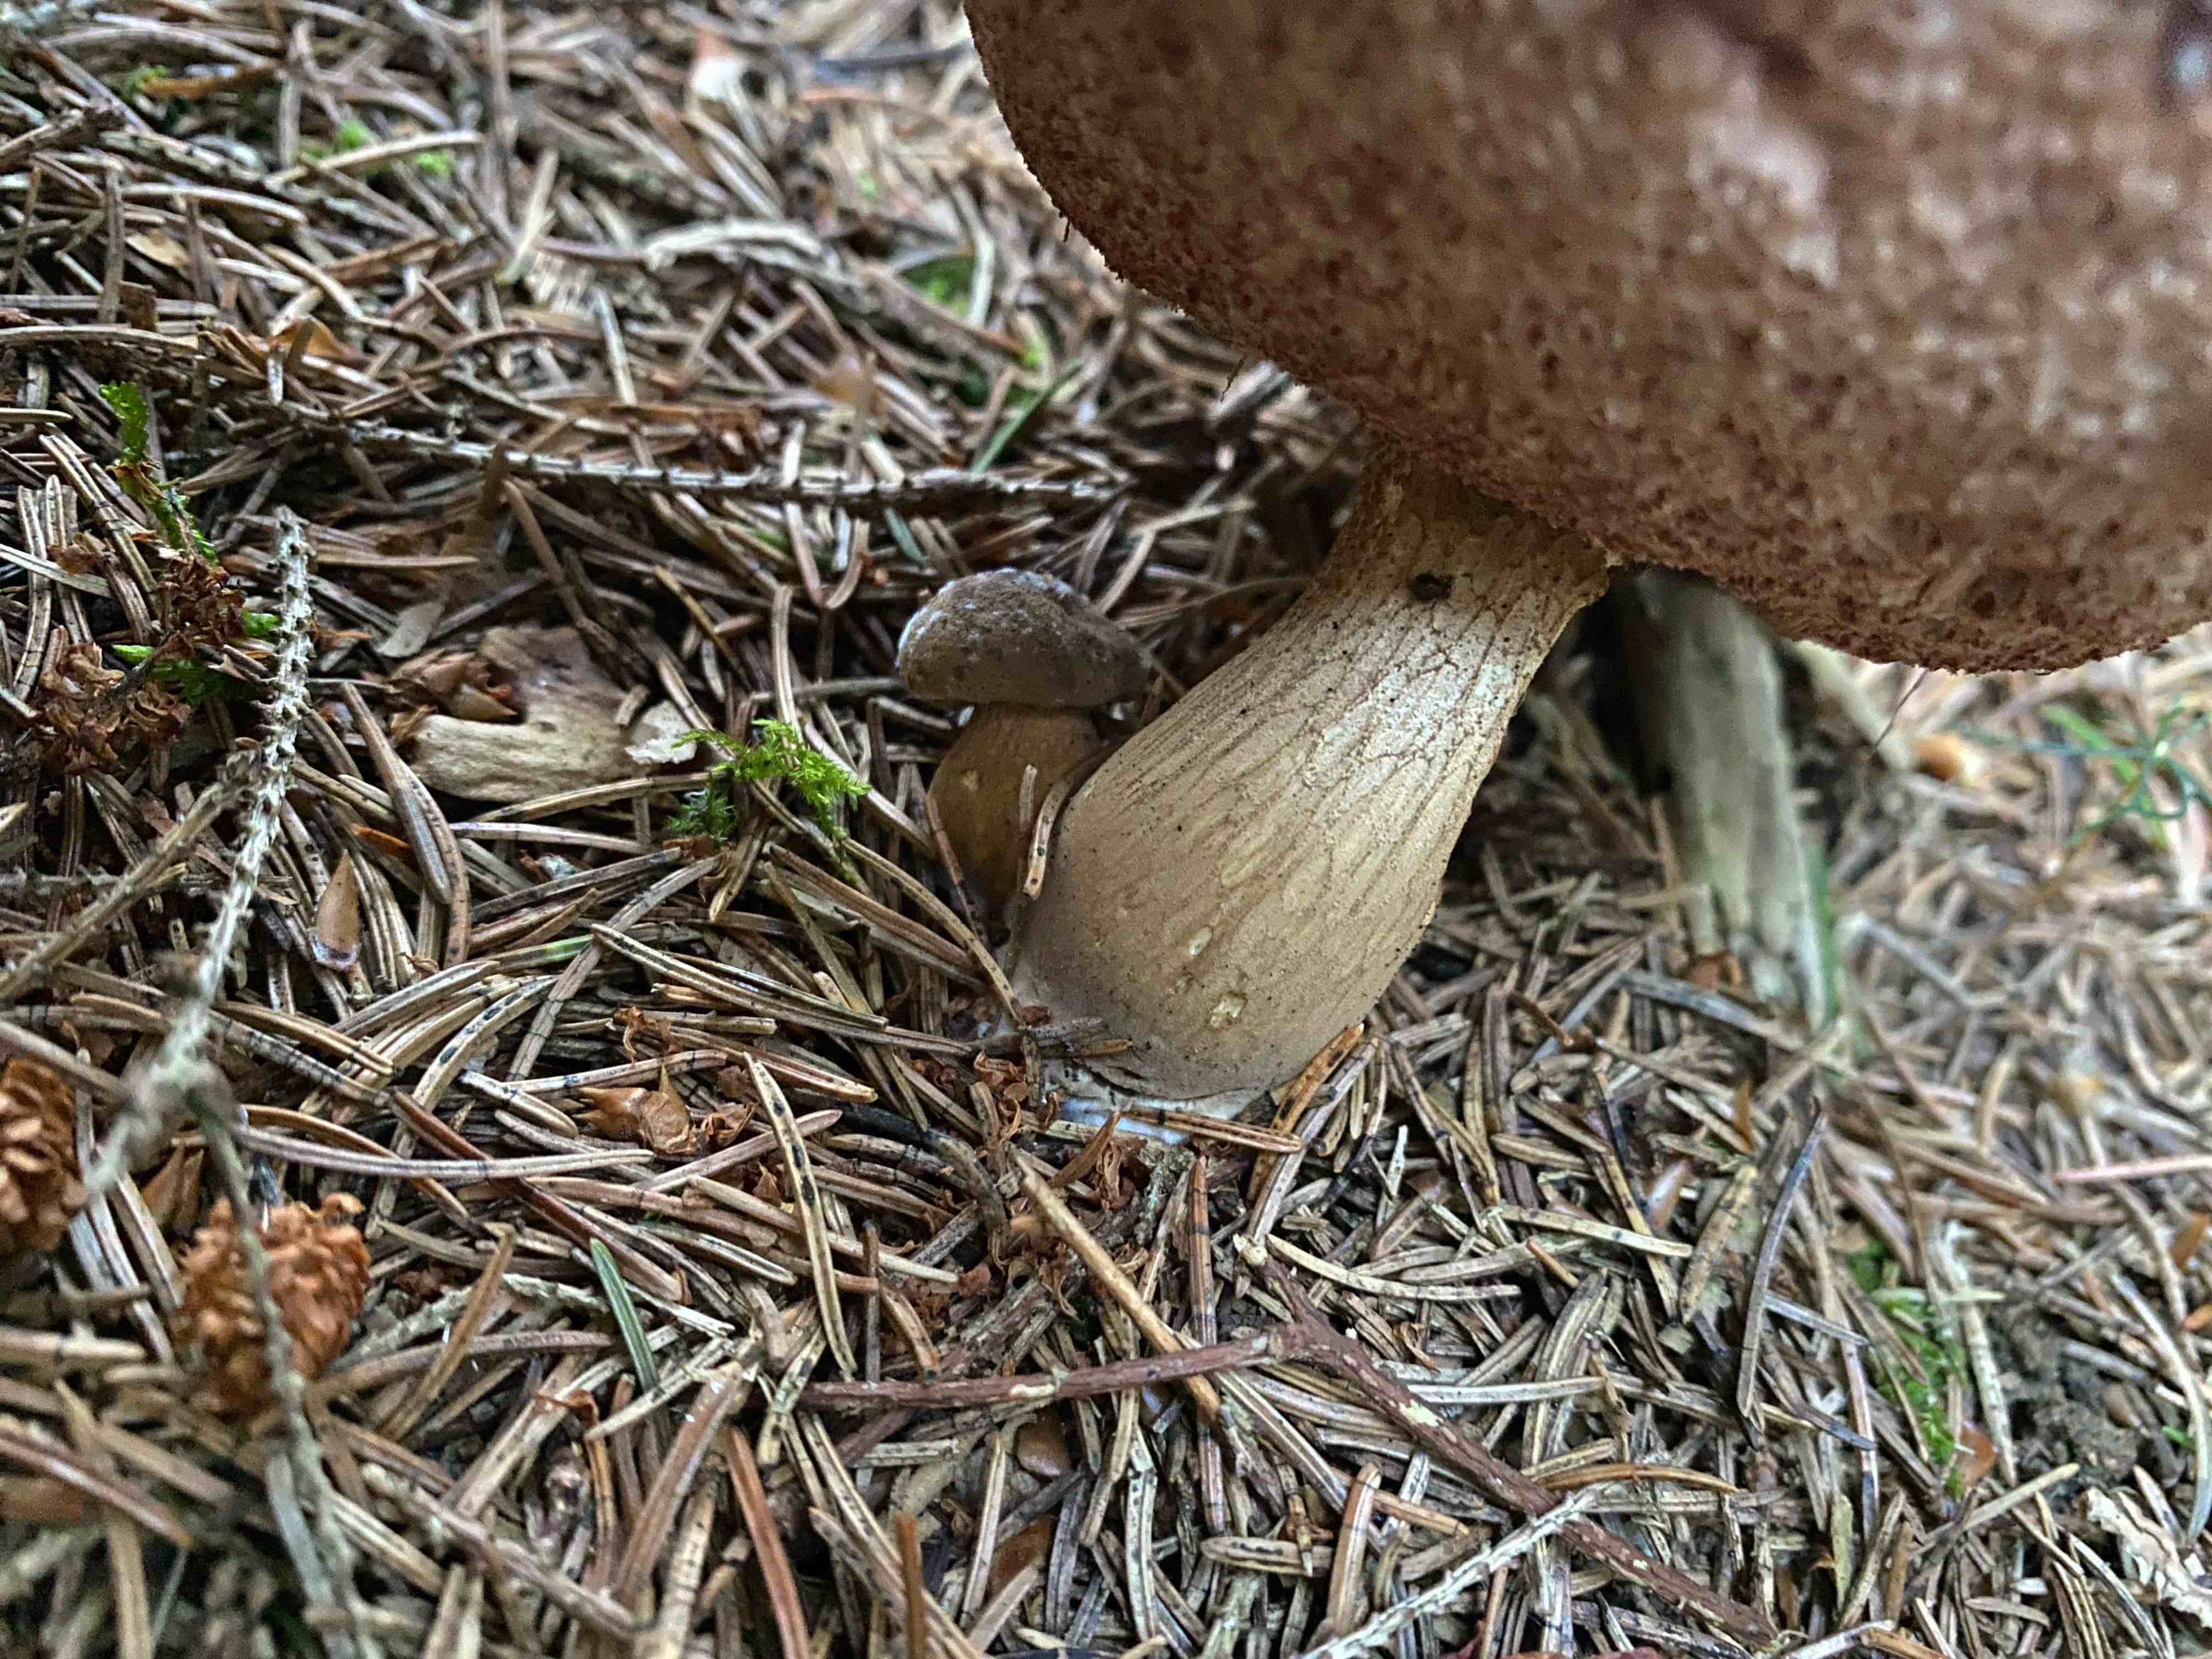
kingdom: Fungi
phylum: Basidiomycota
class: Agaricomycetes
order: Boletales
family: Boletaceae
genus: Tylopilus
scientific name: Tylopilus felleus
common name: galderørhat
